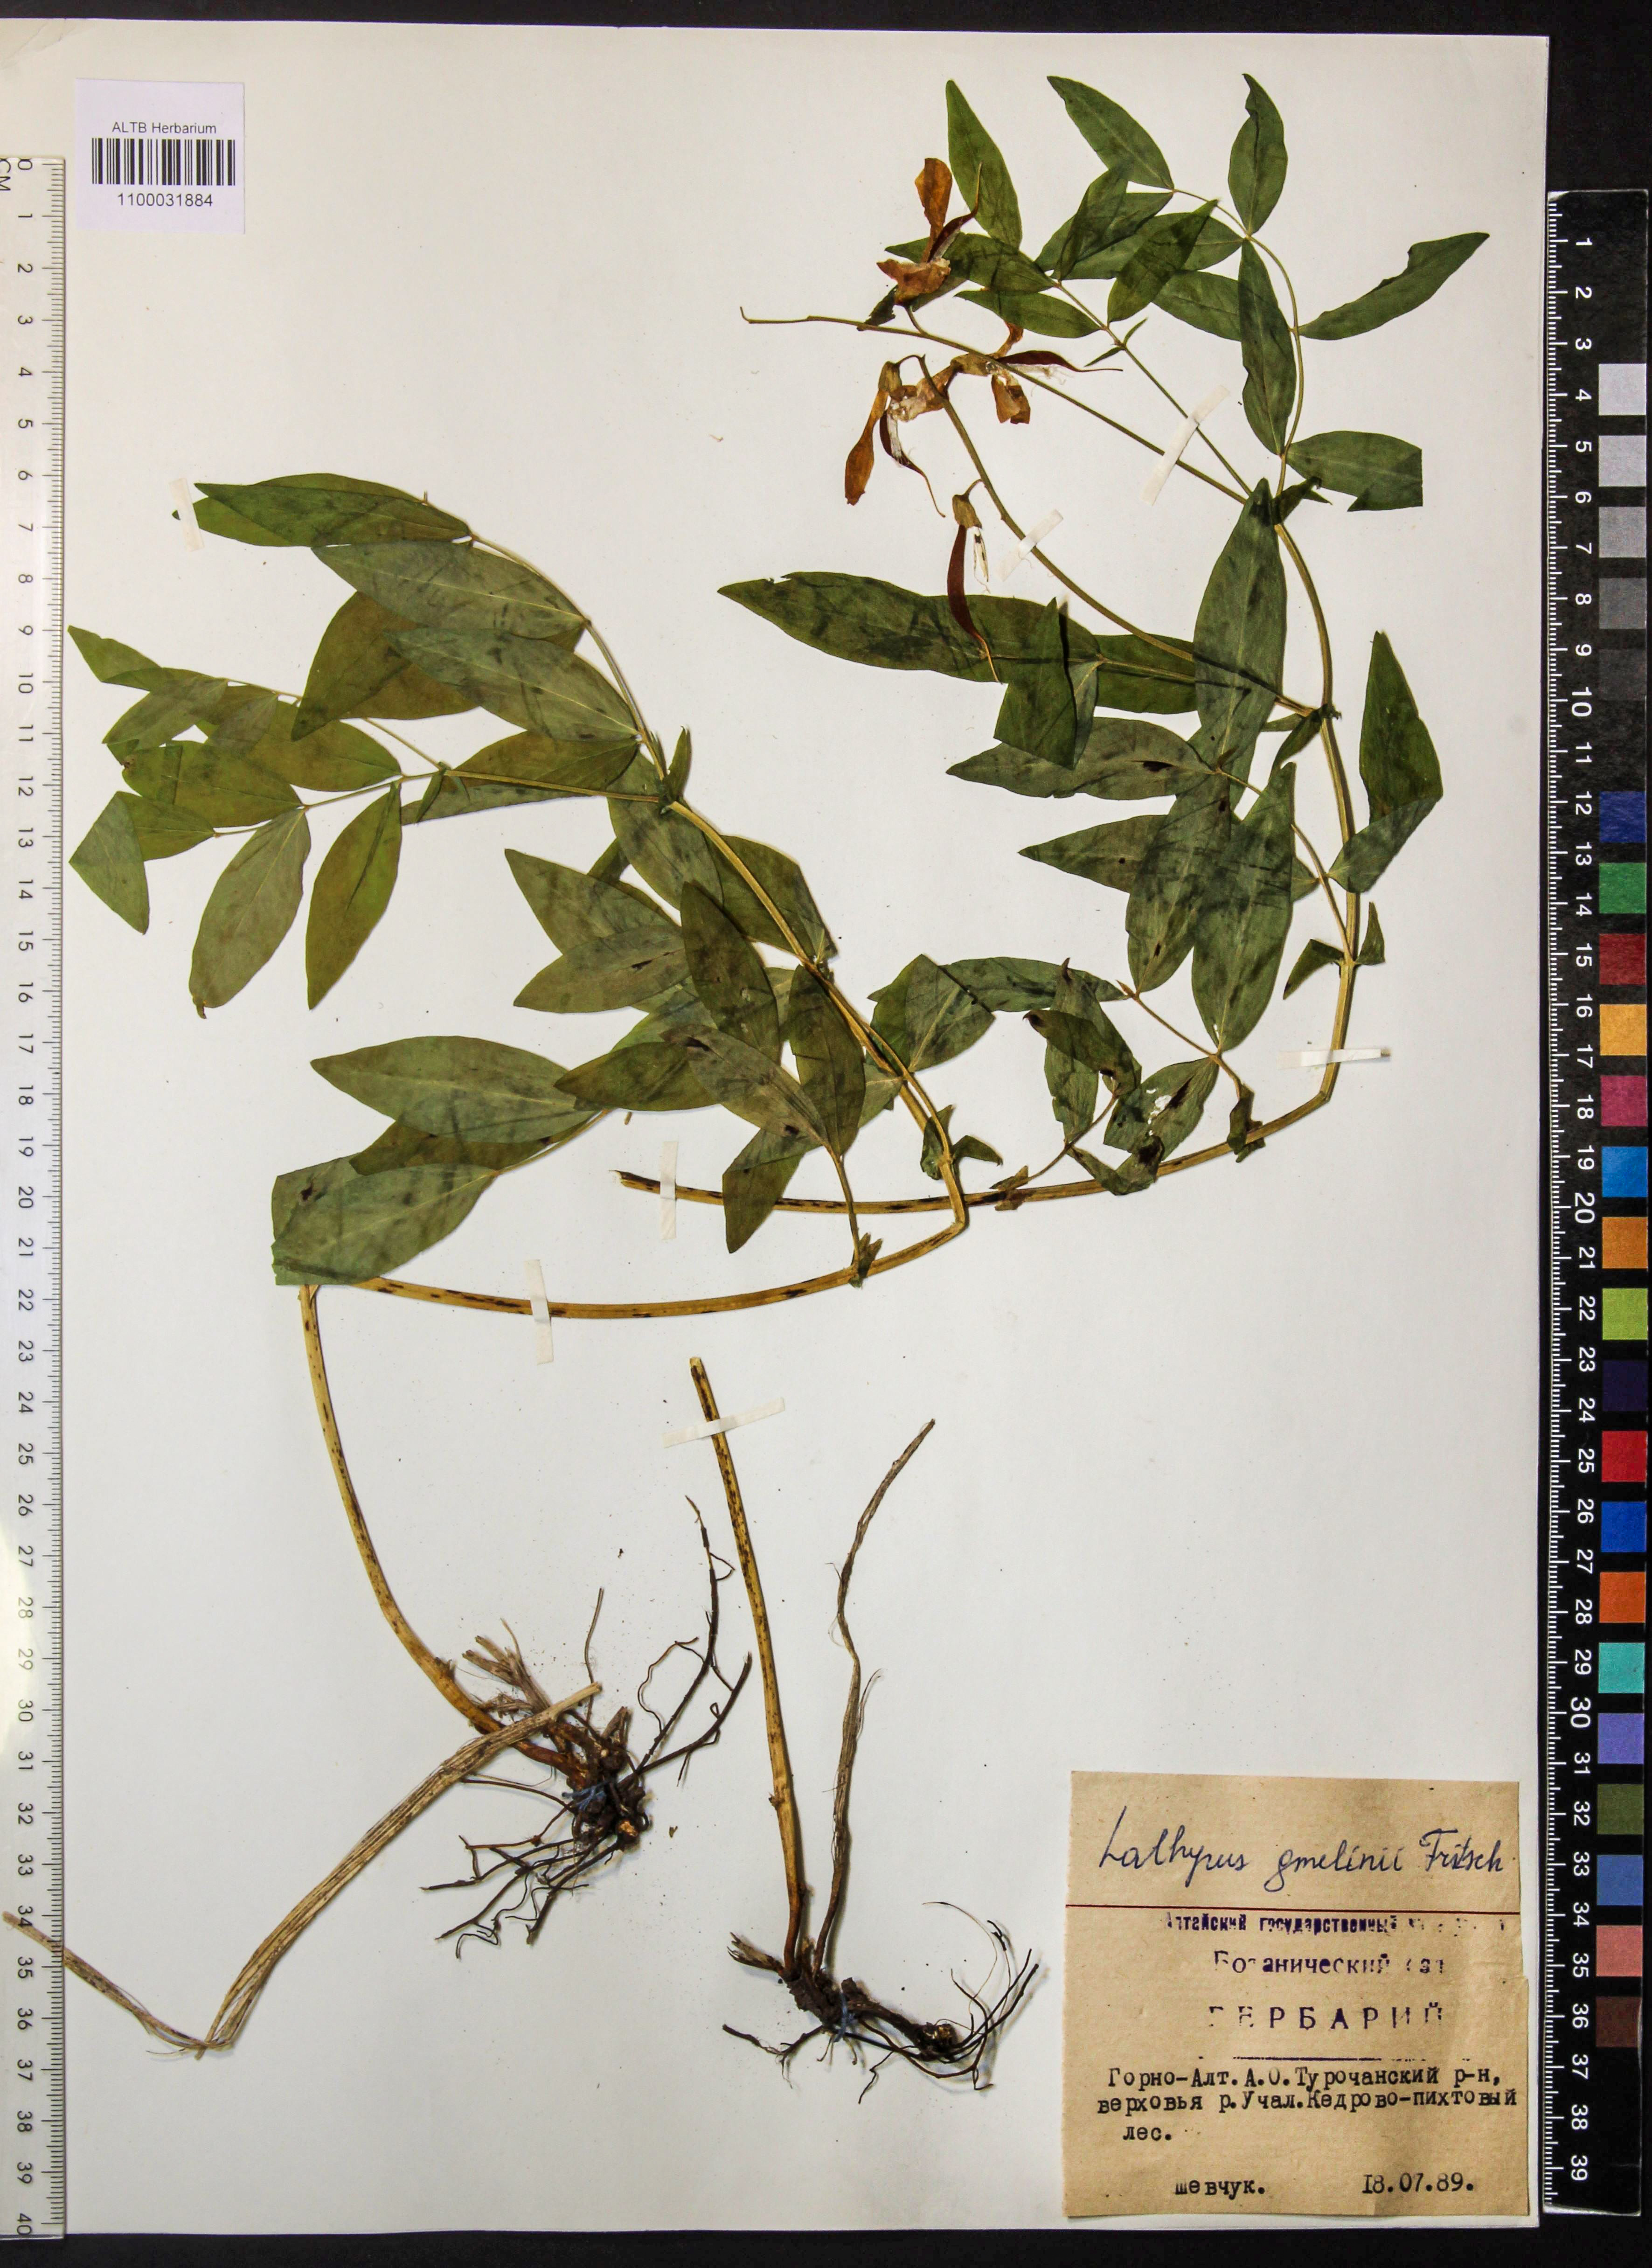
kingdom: Plantae
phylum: Tracheophyta
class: Magnoliopsida
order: Fabales
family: Fabaceae
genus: Lathyrus
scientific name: Lathyrus gmelinii
